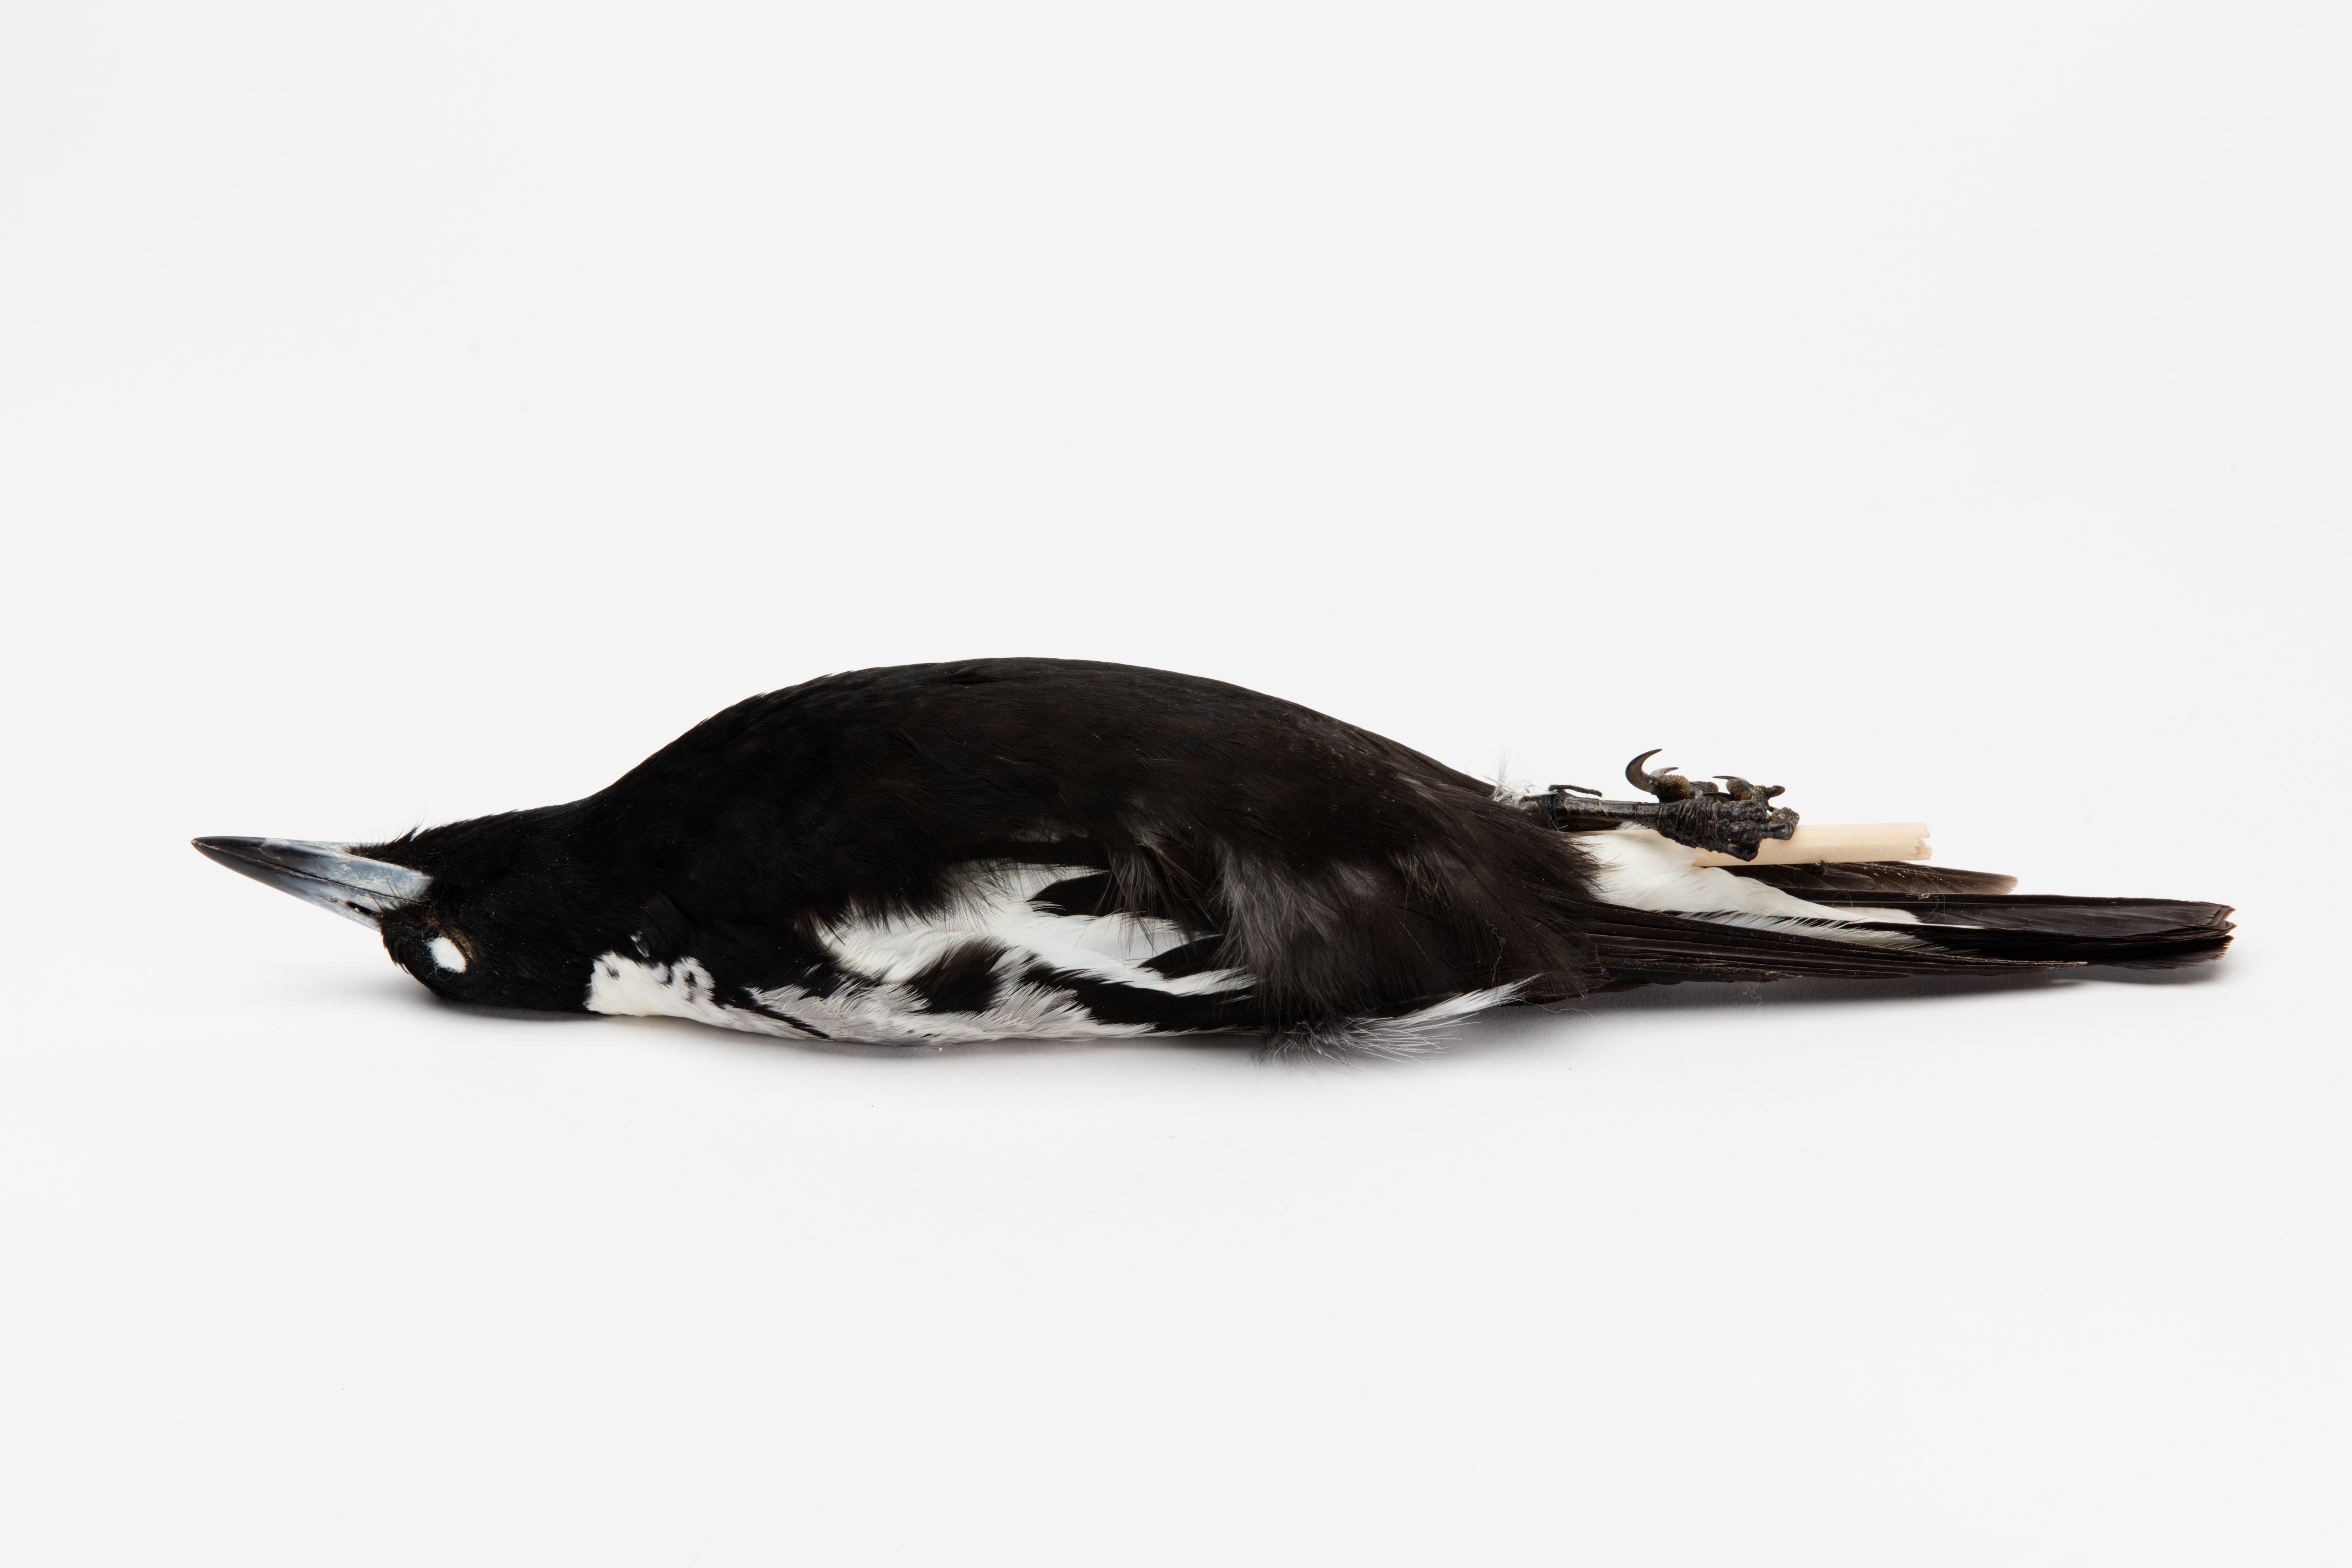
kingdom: Animalia
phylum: Chordata
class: Aves
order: Passeriformes
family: Cracticidae
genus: Gymnorhina
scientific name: Gymnorhina tibicen
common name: Australian magpie
